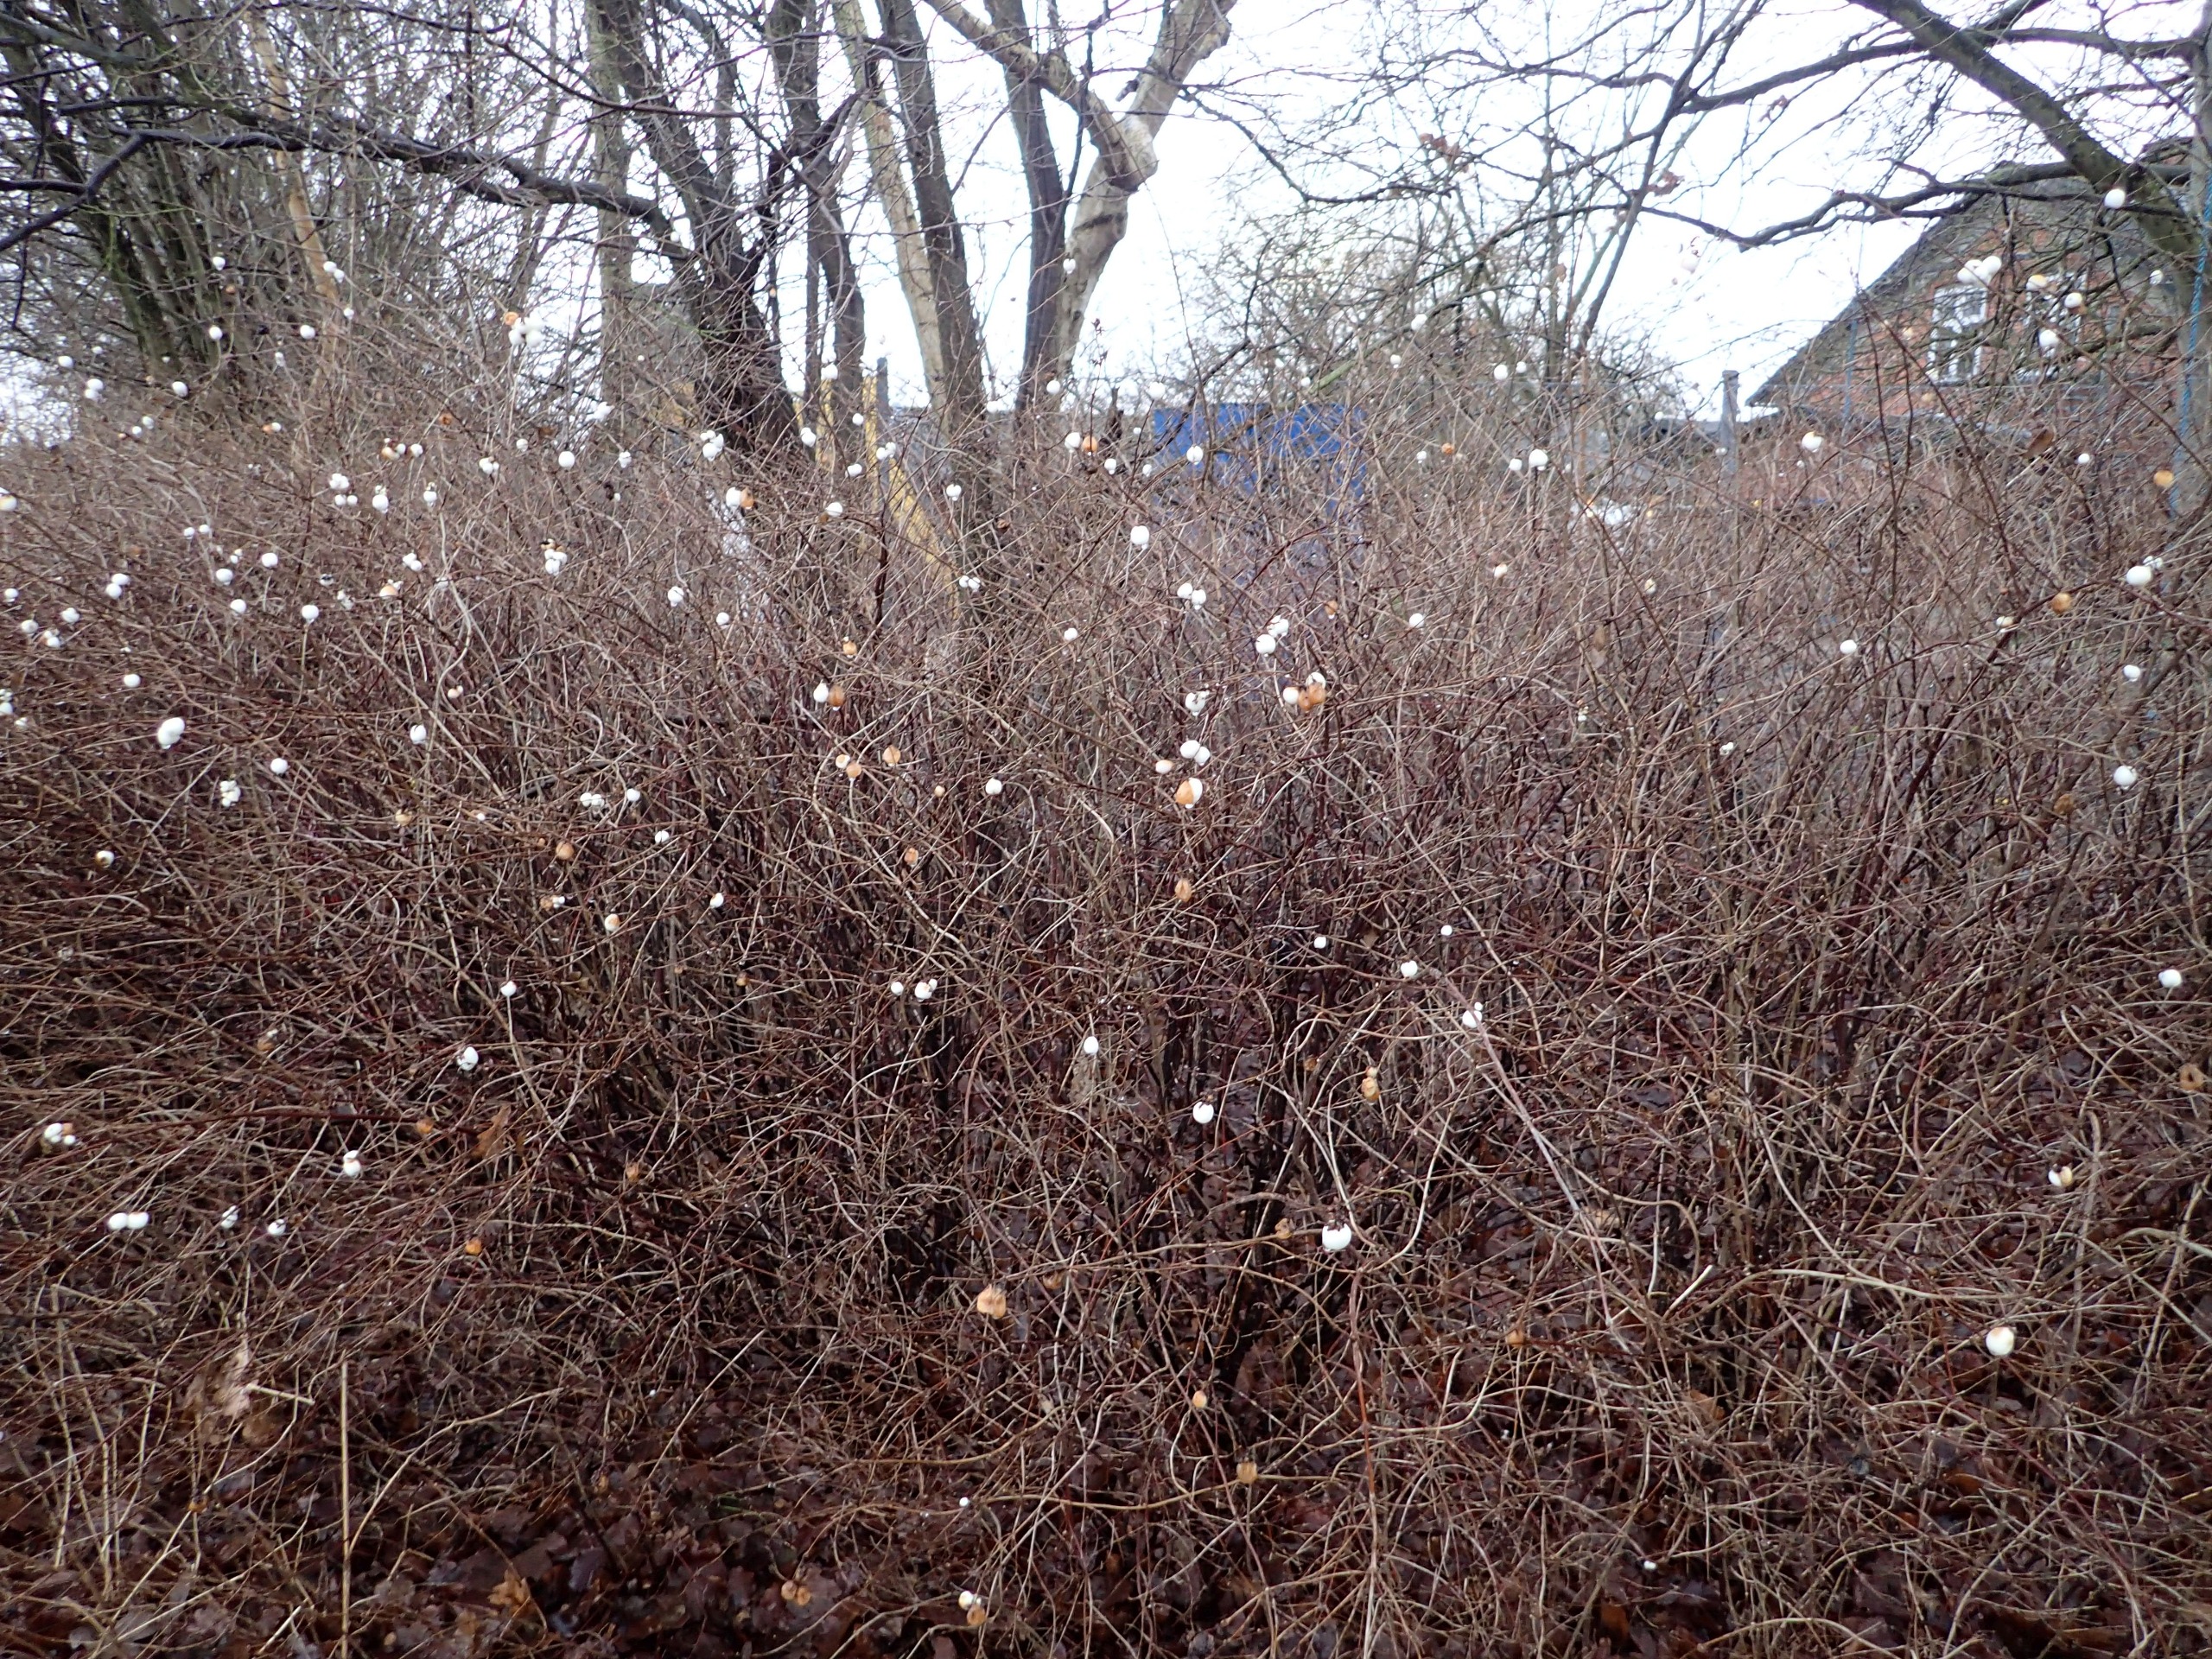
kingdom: Plantae
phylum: Tracheophyta
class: Magnoliopsida
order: Dipsacales
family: Caprifoliaceae
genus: Symphoricarpos
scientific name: Symphoricarpos albus
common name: Almindelig snebær
